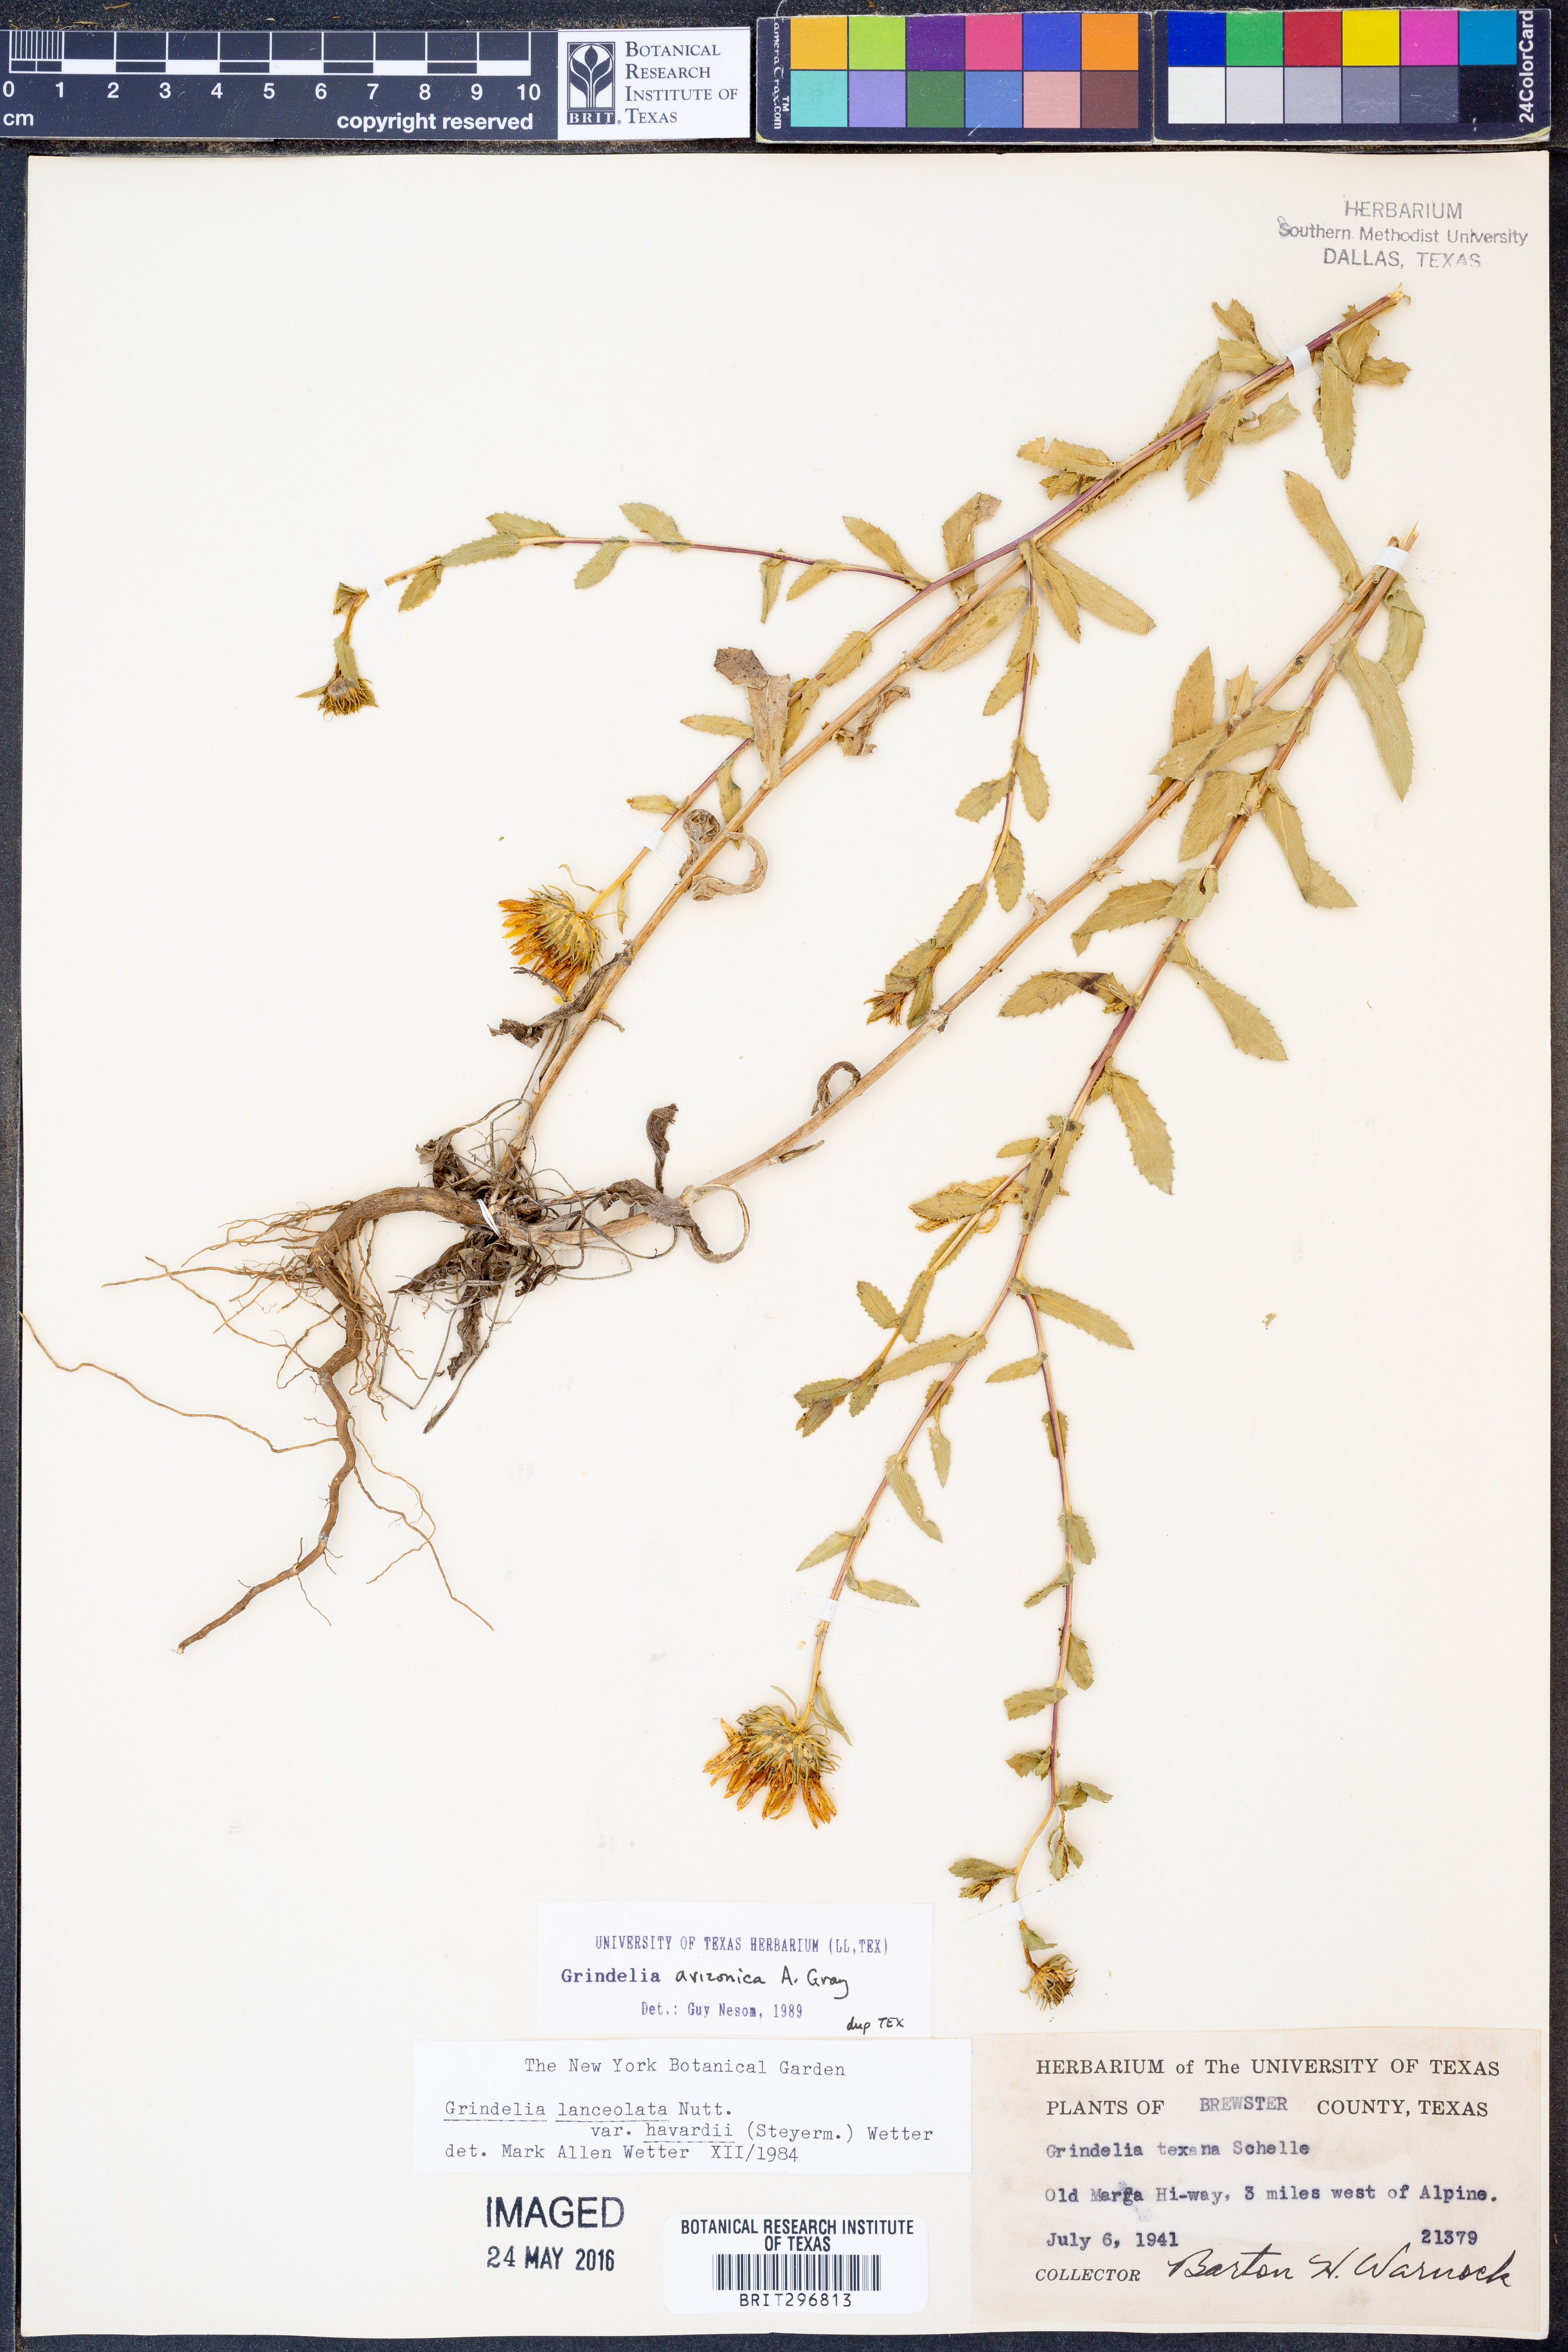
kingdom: Plantae
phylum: Tracheophyta
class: Magnoliopsida
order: Asterales
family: Asteraceae
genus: Grindelia
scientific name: Grindelia arizonica
